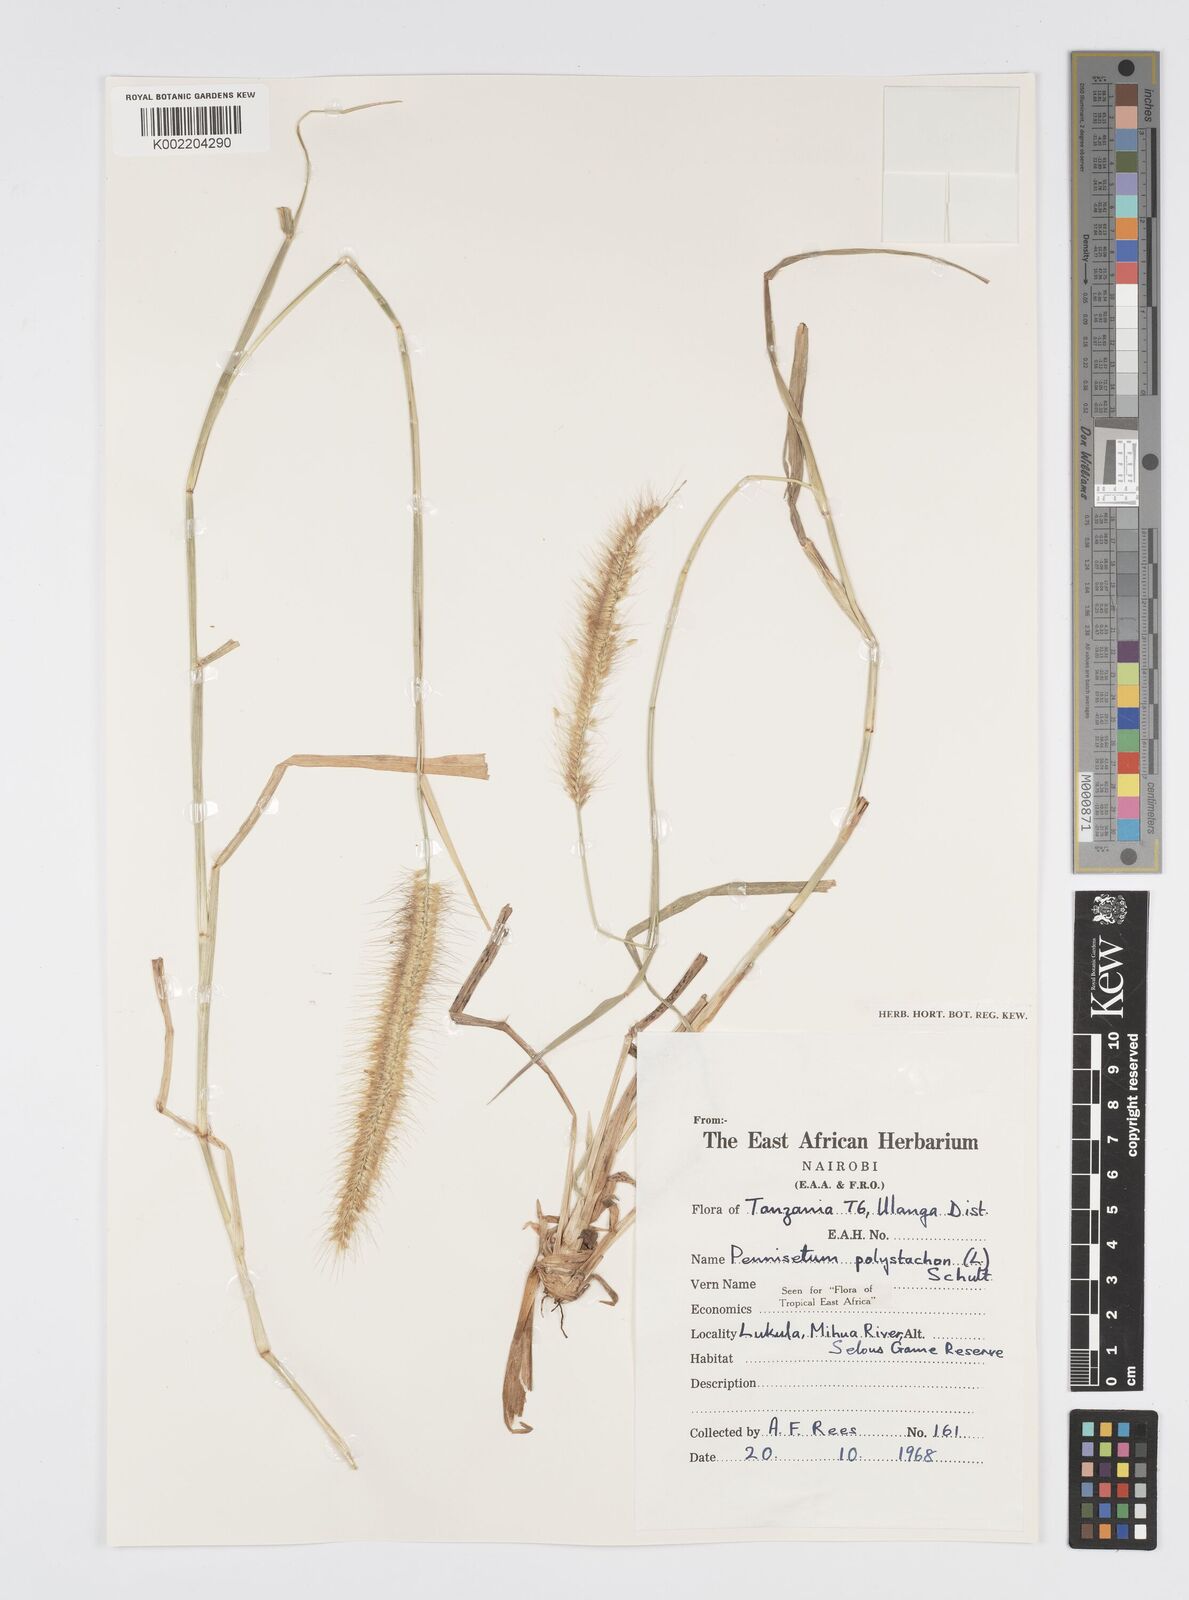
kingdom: Plantae
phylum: Tracheophyta
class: Liliopsida
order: Poales
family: Poaceae
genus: Setaria
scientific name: Setaria parviflora
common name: Knotroot bristle-grass
